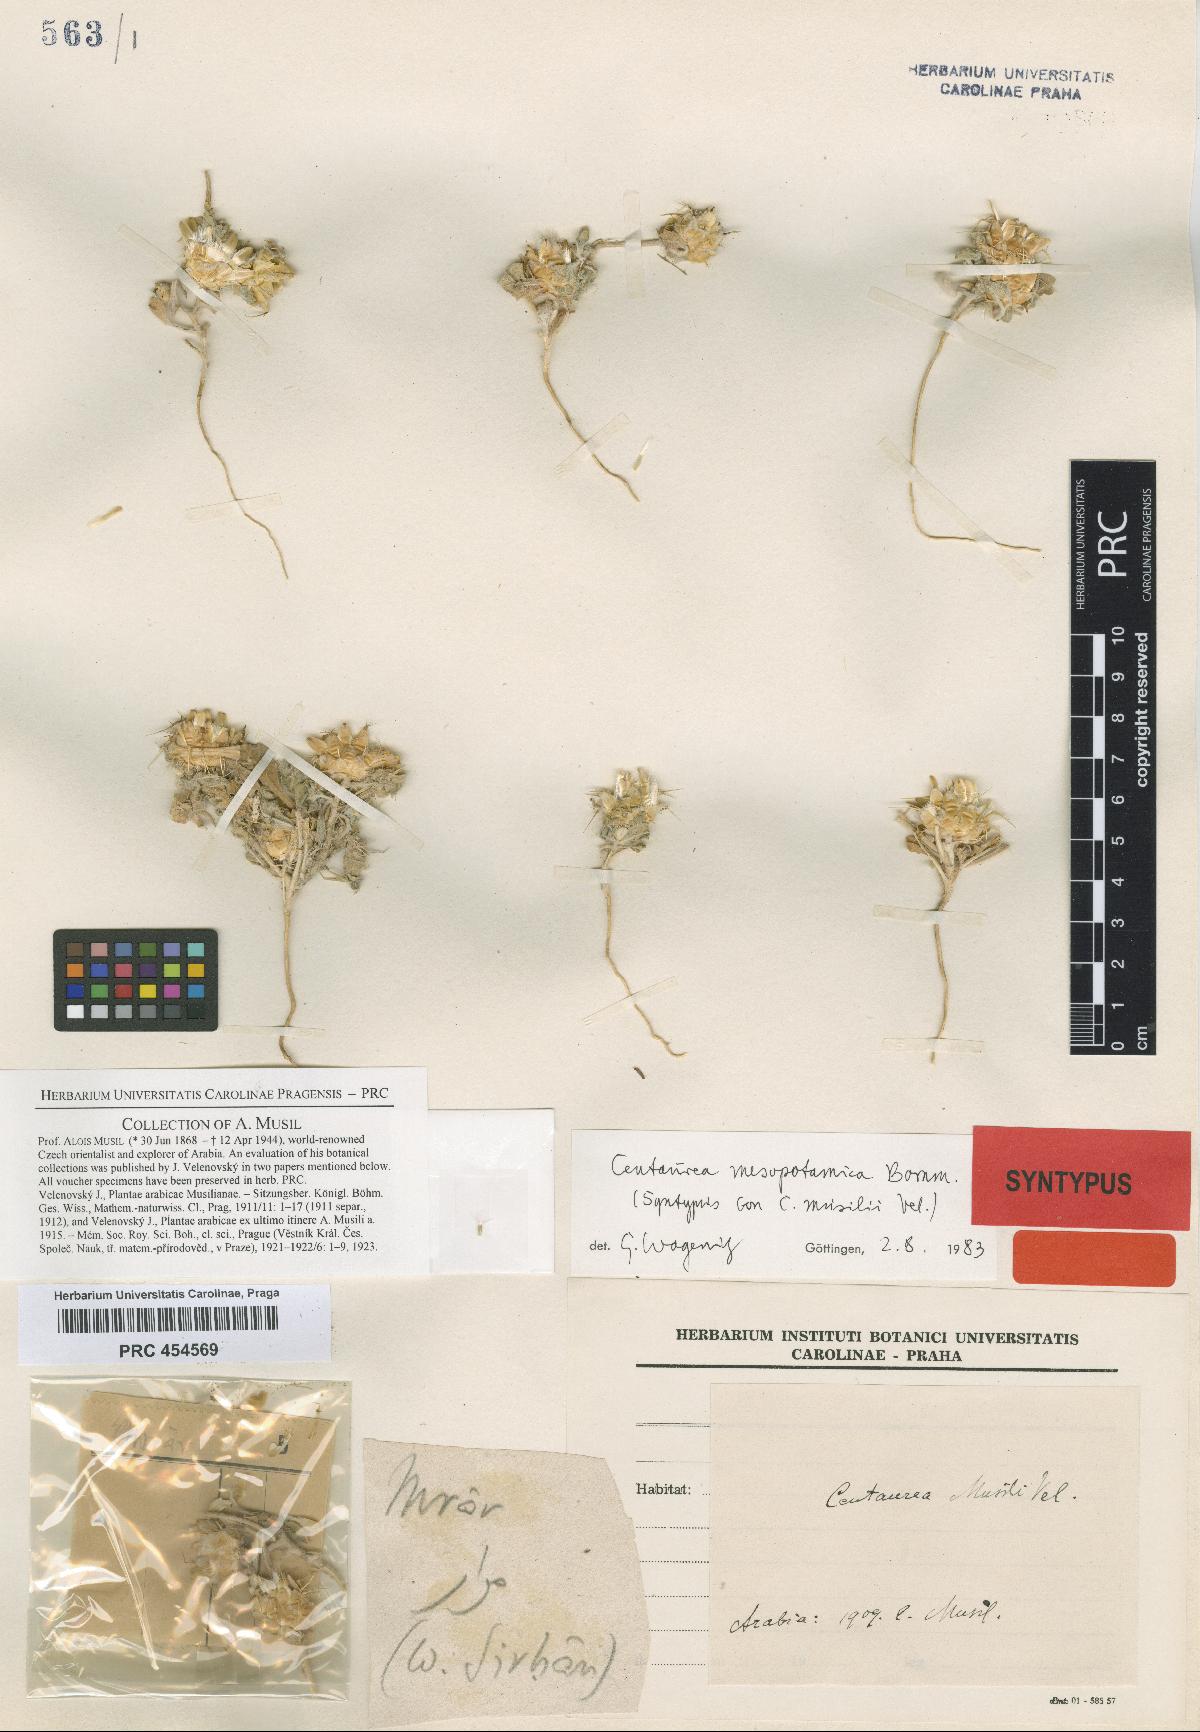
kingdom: Plantae
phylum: Tracheophyta
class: Magnoliopsida
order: Asterales
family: Asteraceae
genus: Centaurea
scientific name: Centaurea musilii
